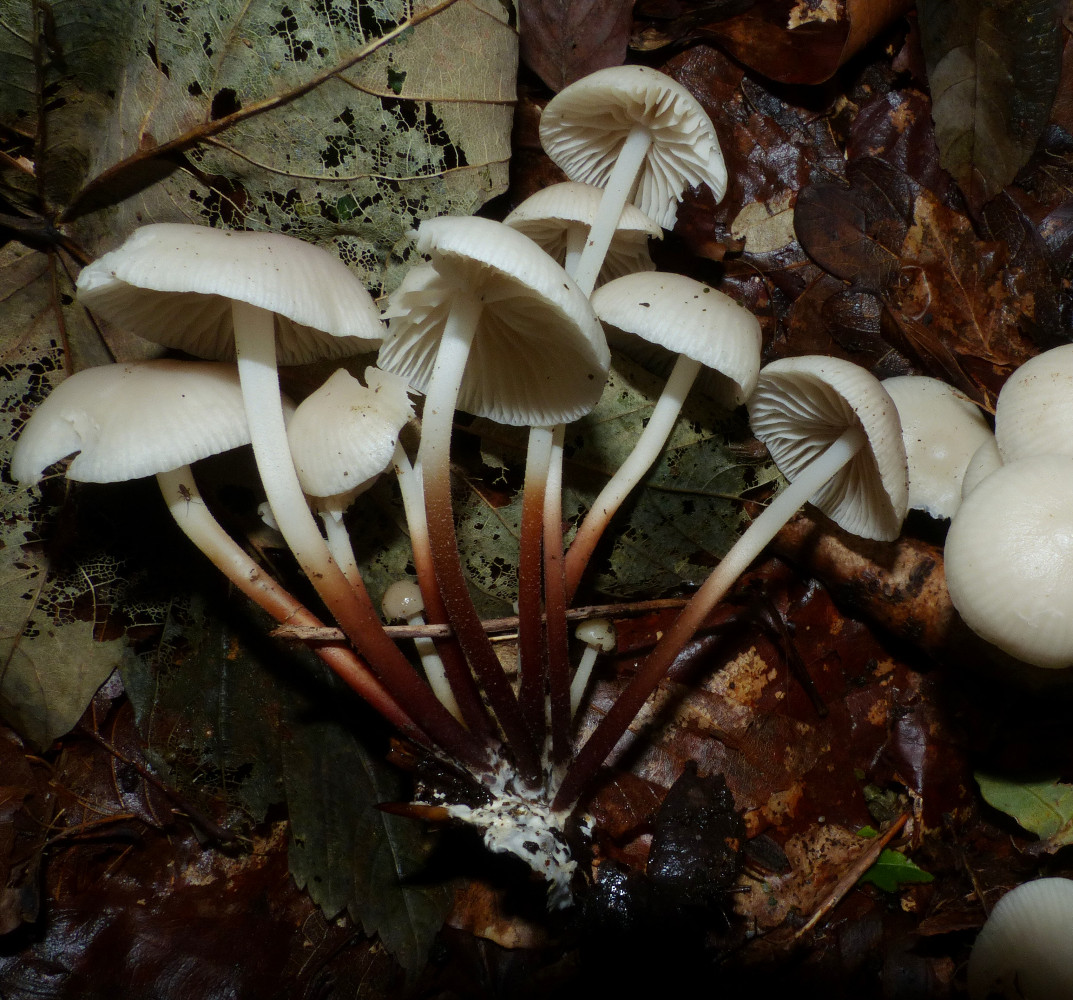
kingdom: Fungi
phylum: Basidiomycota
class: Agaricomycetes
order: Agaricales
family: Marasmiaceae
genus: Marasmius
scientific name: Marasmius wynneae
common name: hvælvet bruskhat
